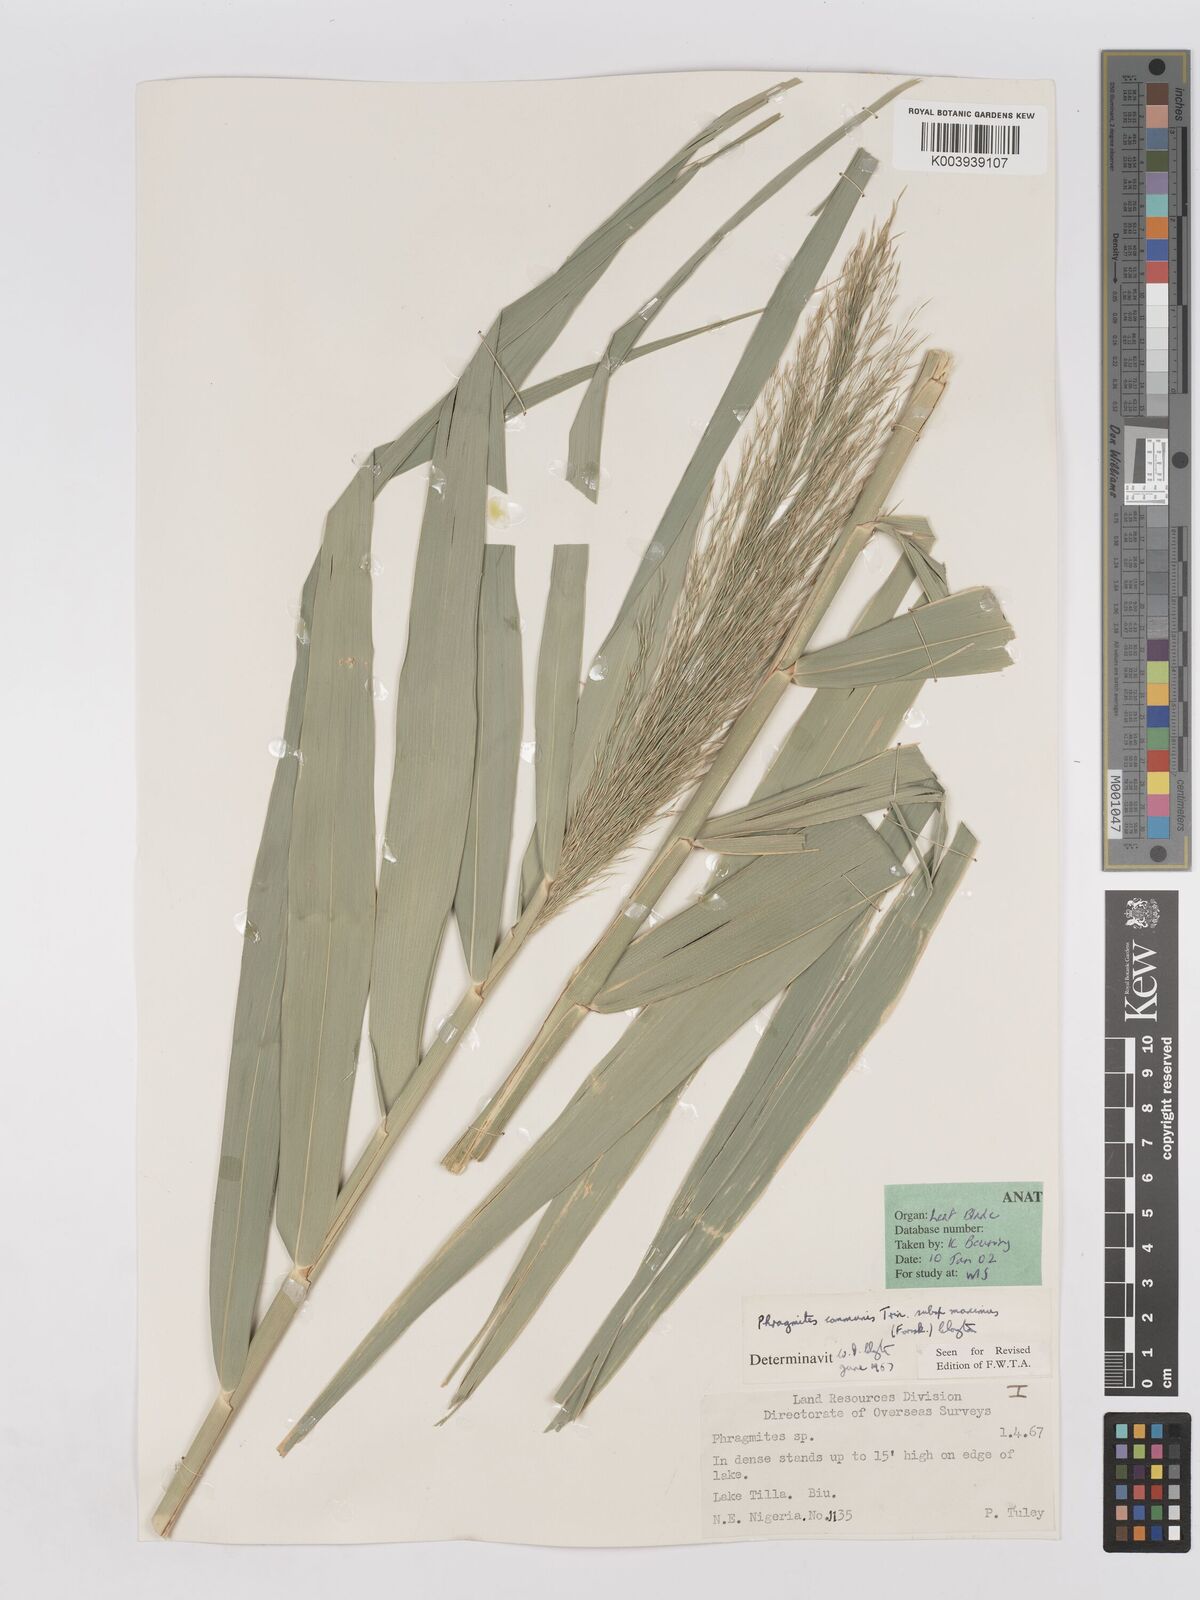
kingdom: Plantae
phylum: Tracheophyta
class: Liliopsida
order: Poales
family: Poaceae
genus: Phragmites
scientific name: Phragmites australis
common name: Common reed
